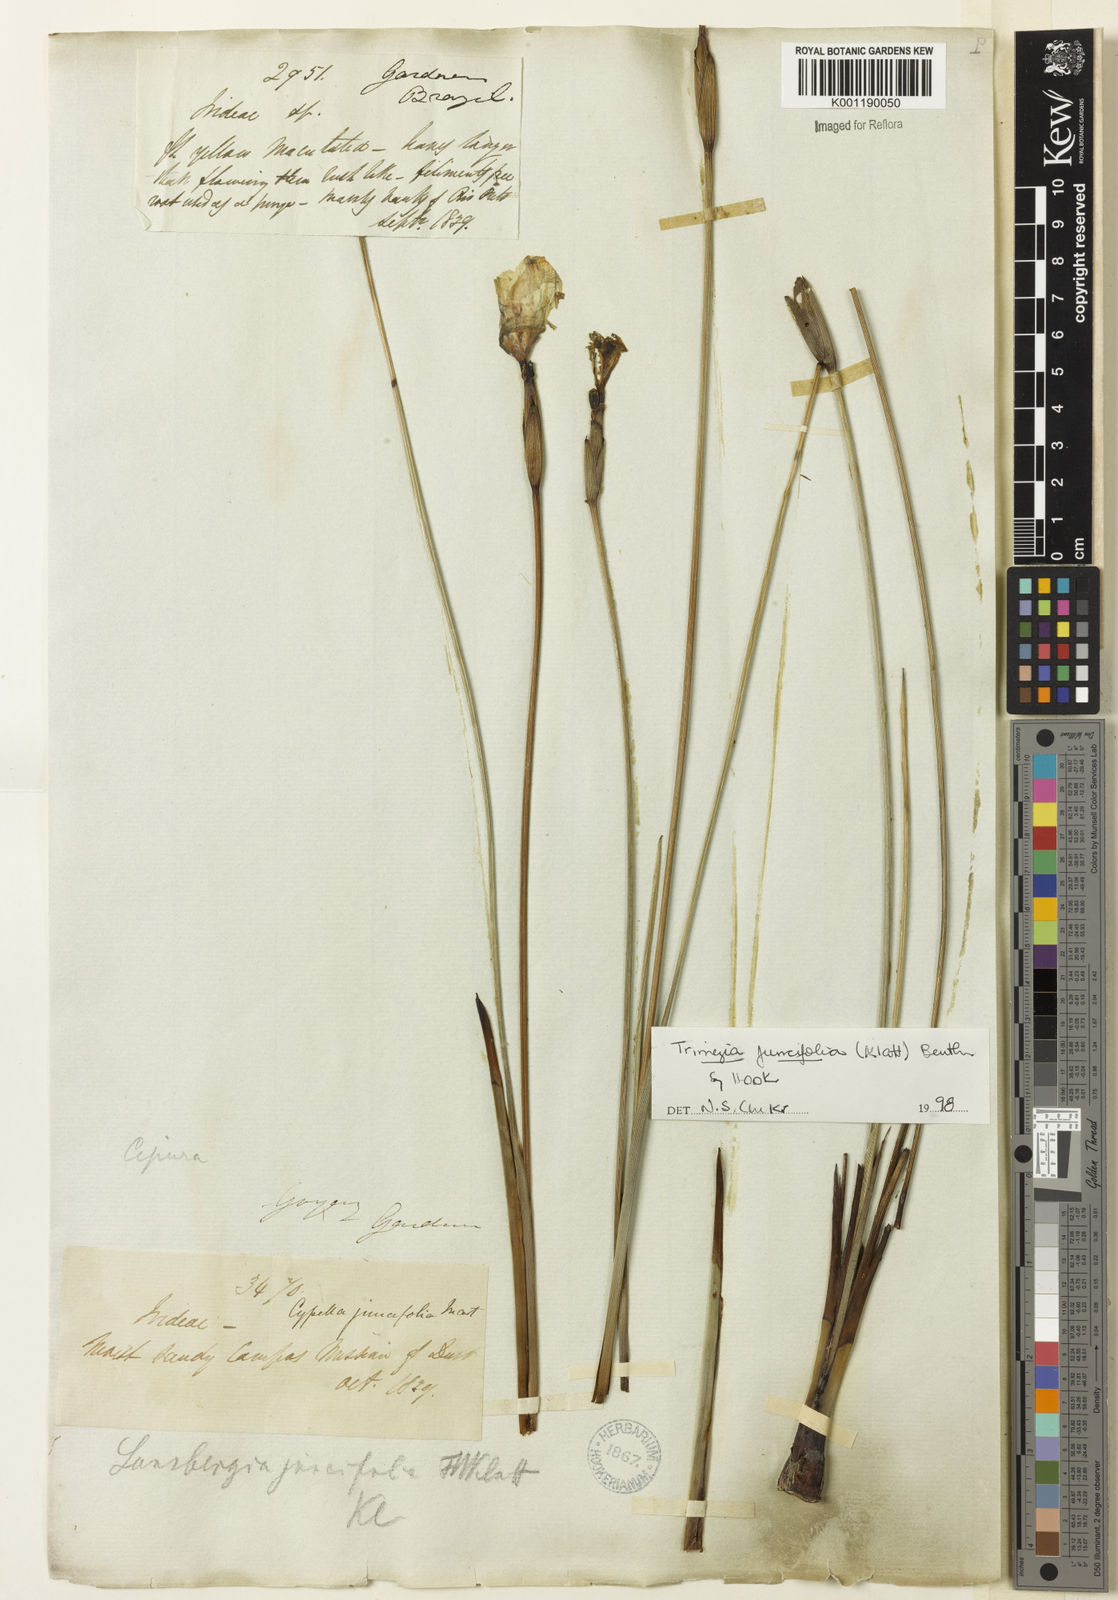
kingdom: Plantae
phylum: Tracheophyta
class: Liliopsida
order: Asparagales
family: Iridaceae
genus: Trimezia
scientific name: Trimezia juncifolia
